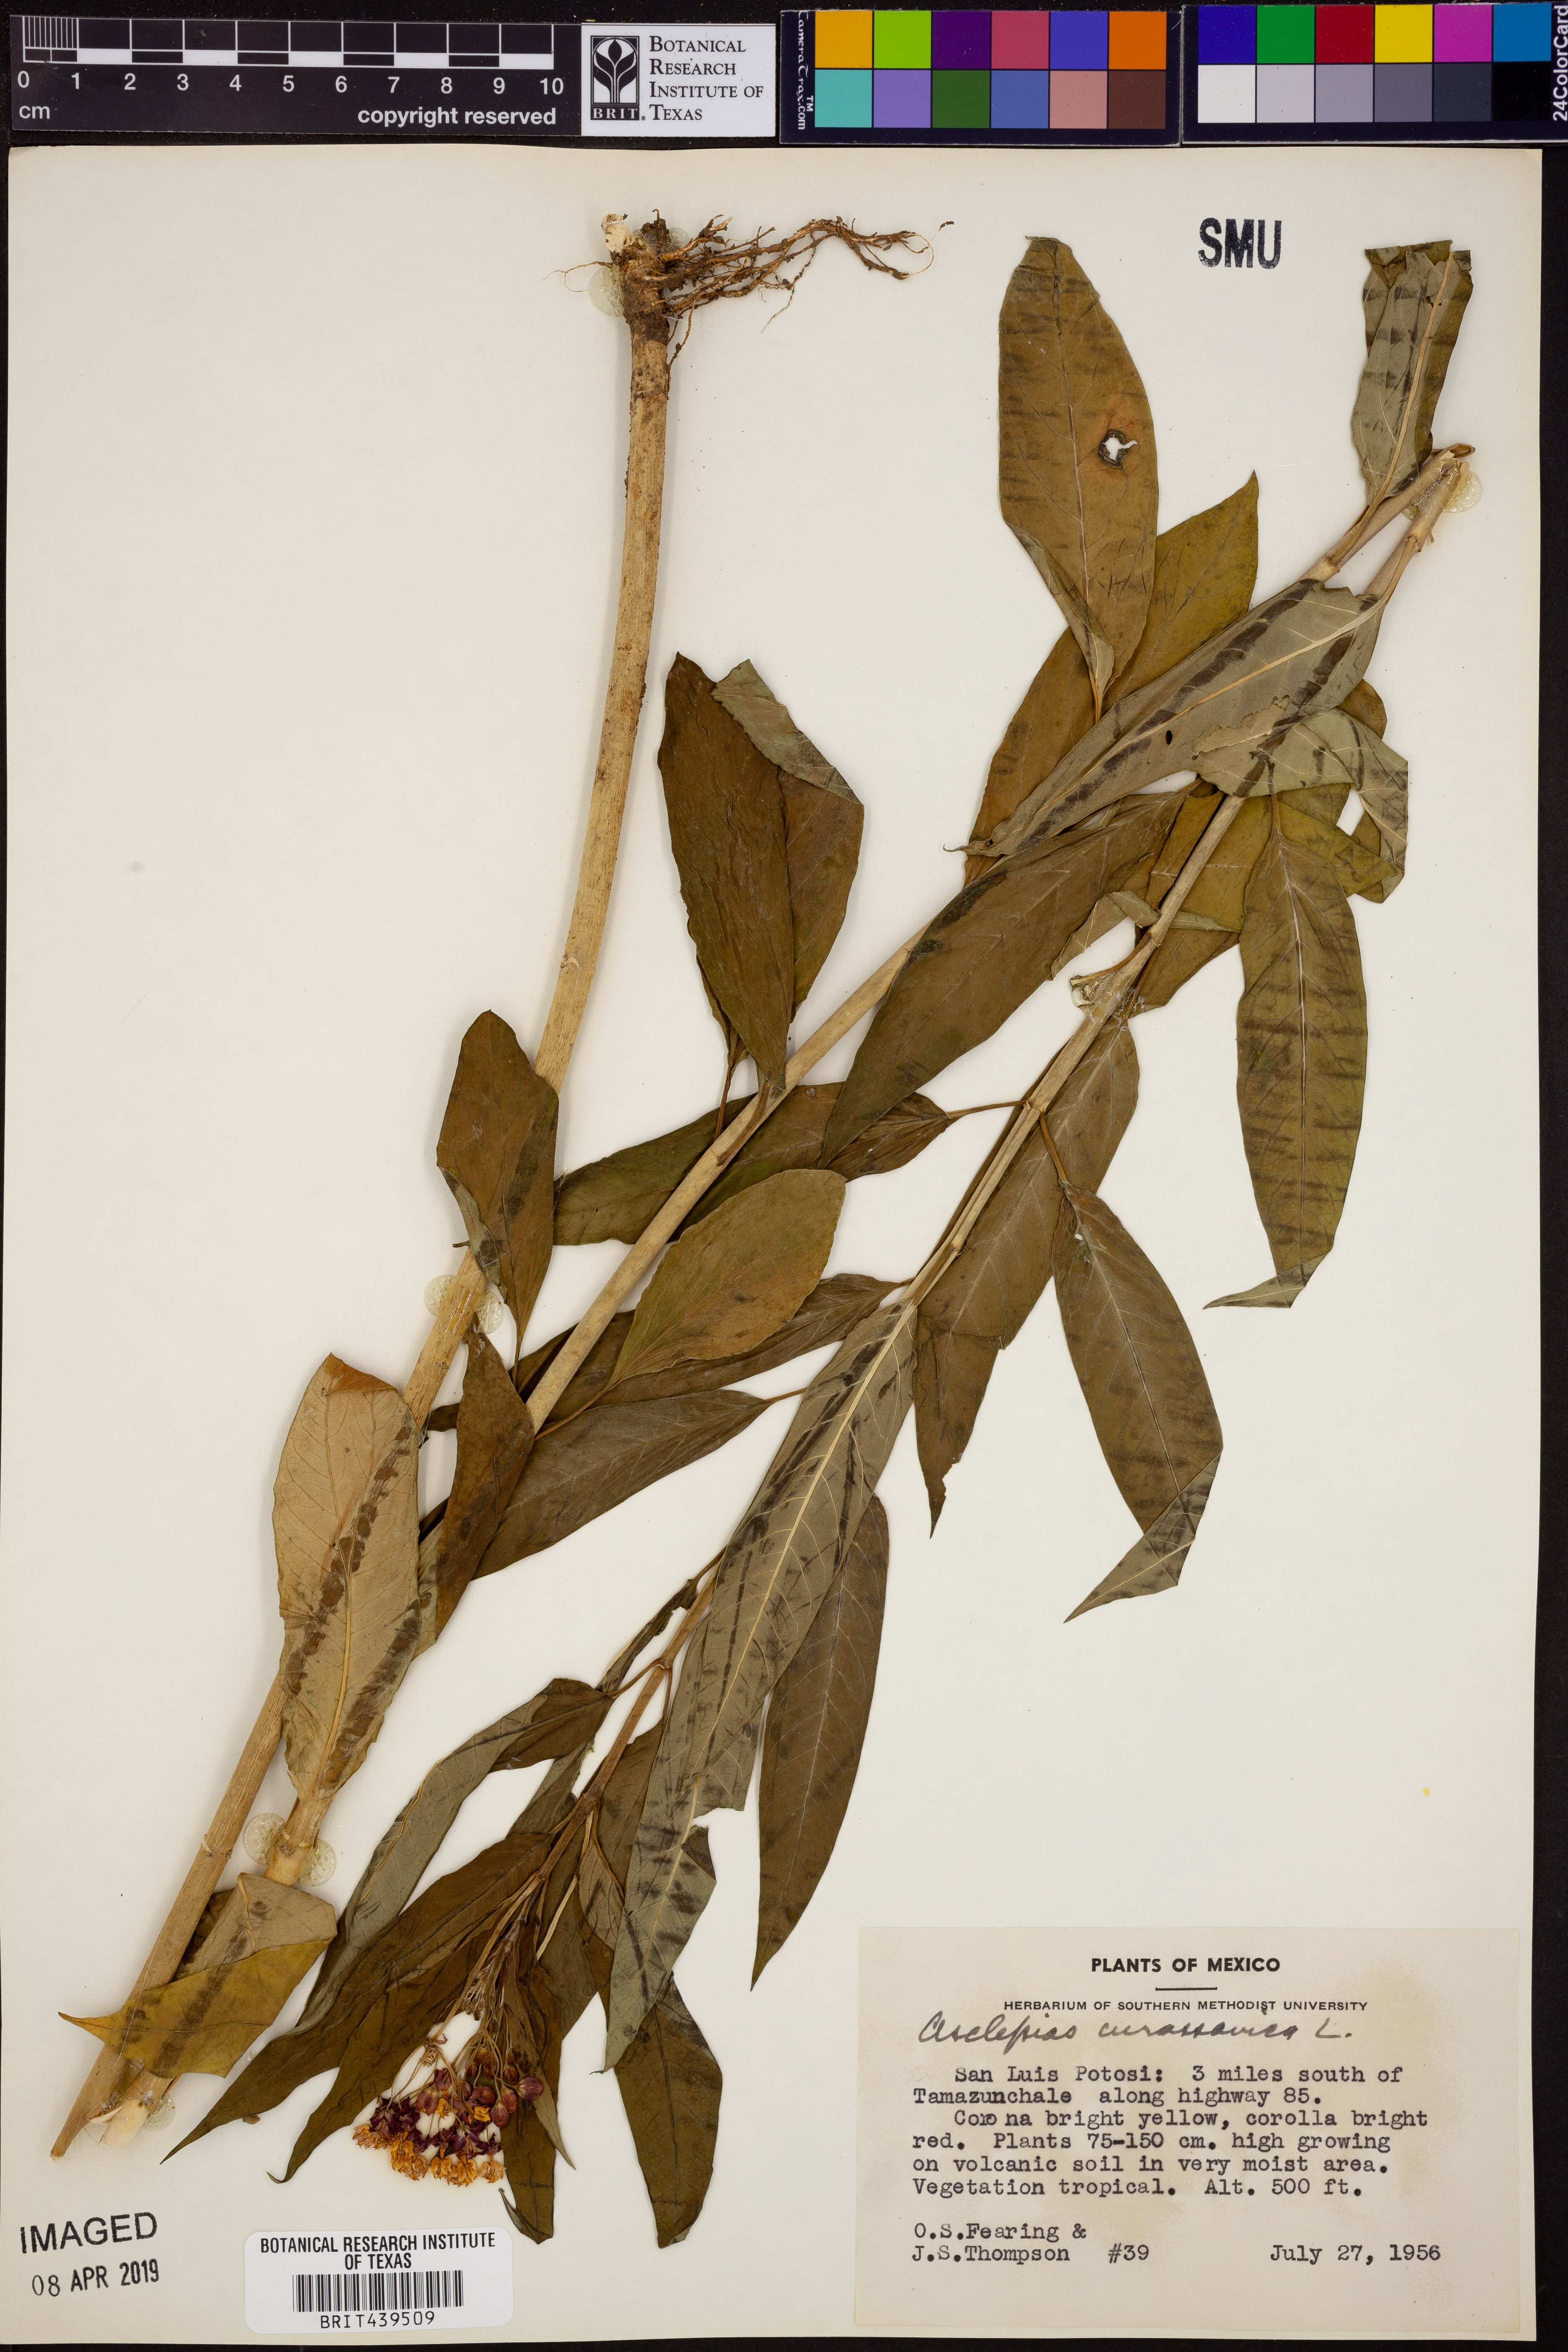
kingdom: Plantae
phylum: Tracheophyta
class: Magnoliopsida
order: Gentianales
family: Apocynaceae
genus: Asclepias
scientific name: Asclepias curassavica
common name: Bloodflower
